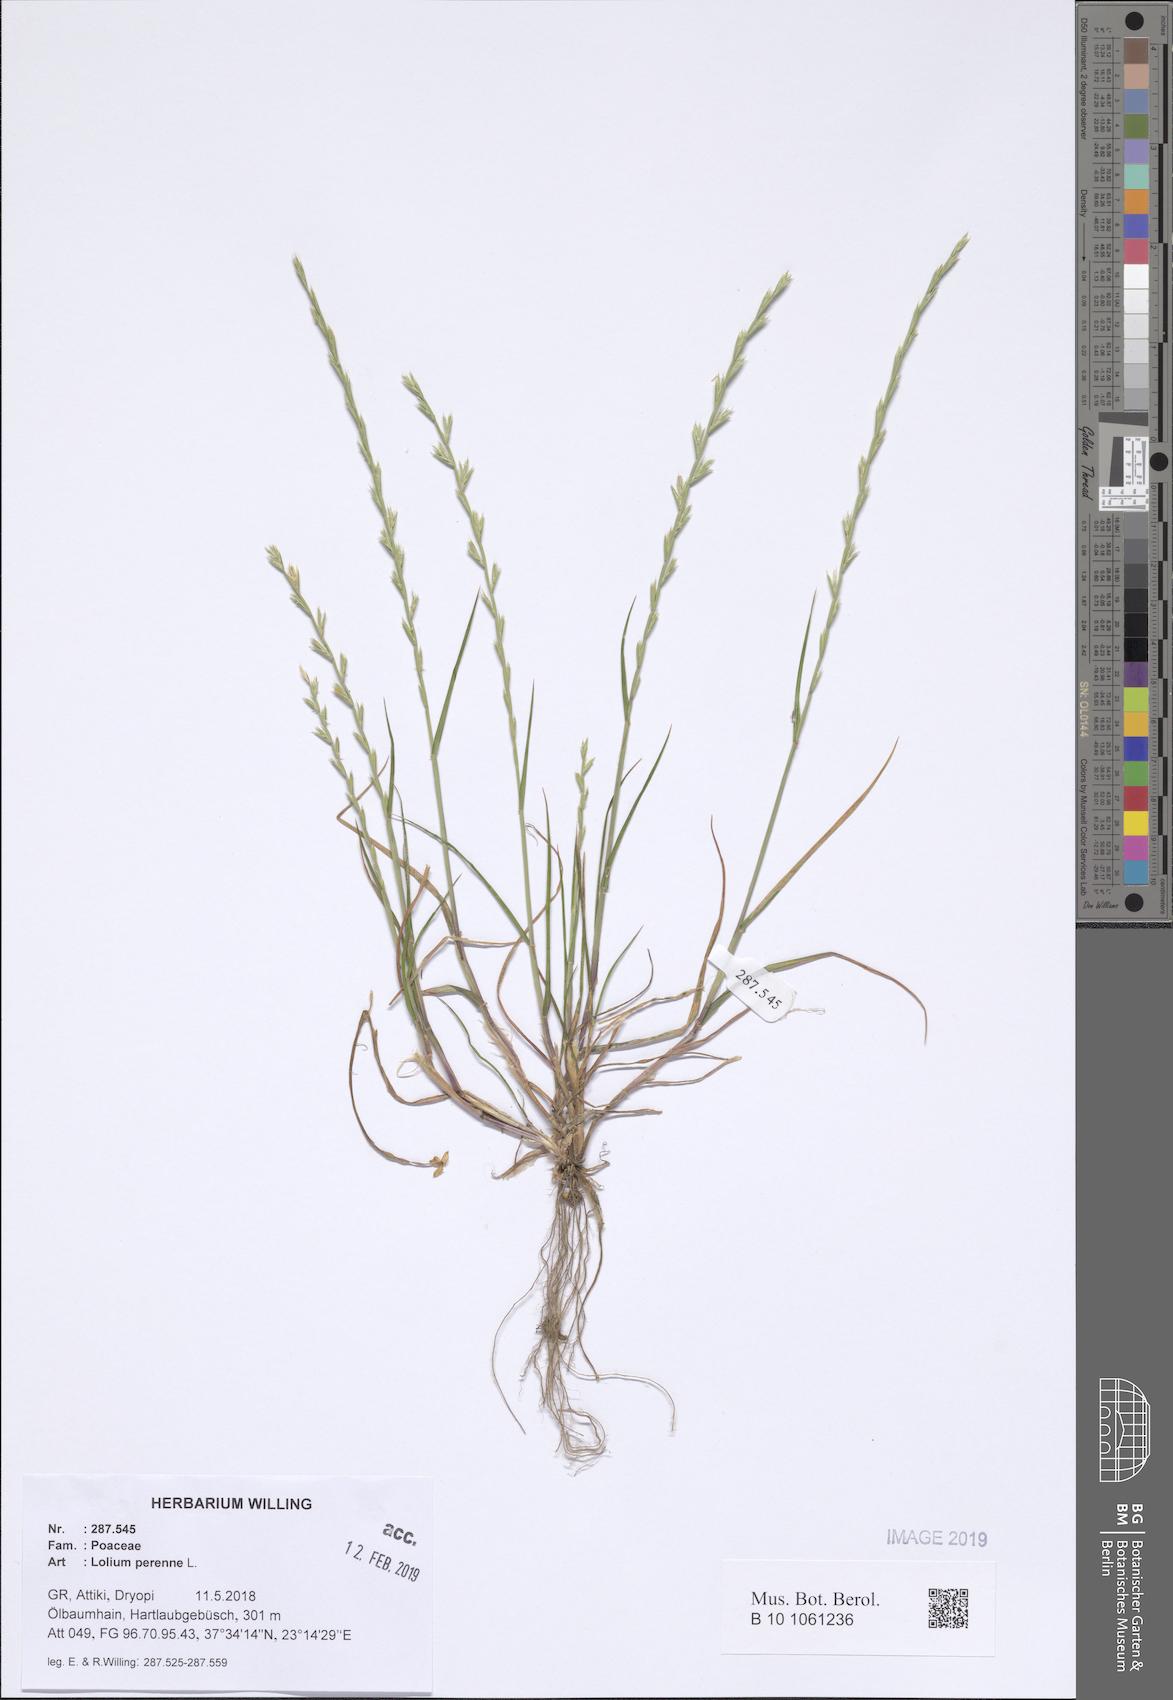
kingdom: Plantae
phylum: Tracheophyta
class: Liliopsida
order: Poales
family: Poaceae
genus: Lolium
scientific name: Lolium perenne
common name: Perennial ryegrass
